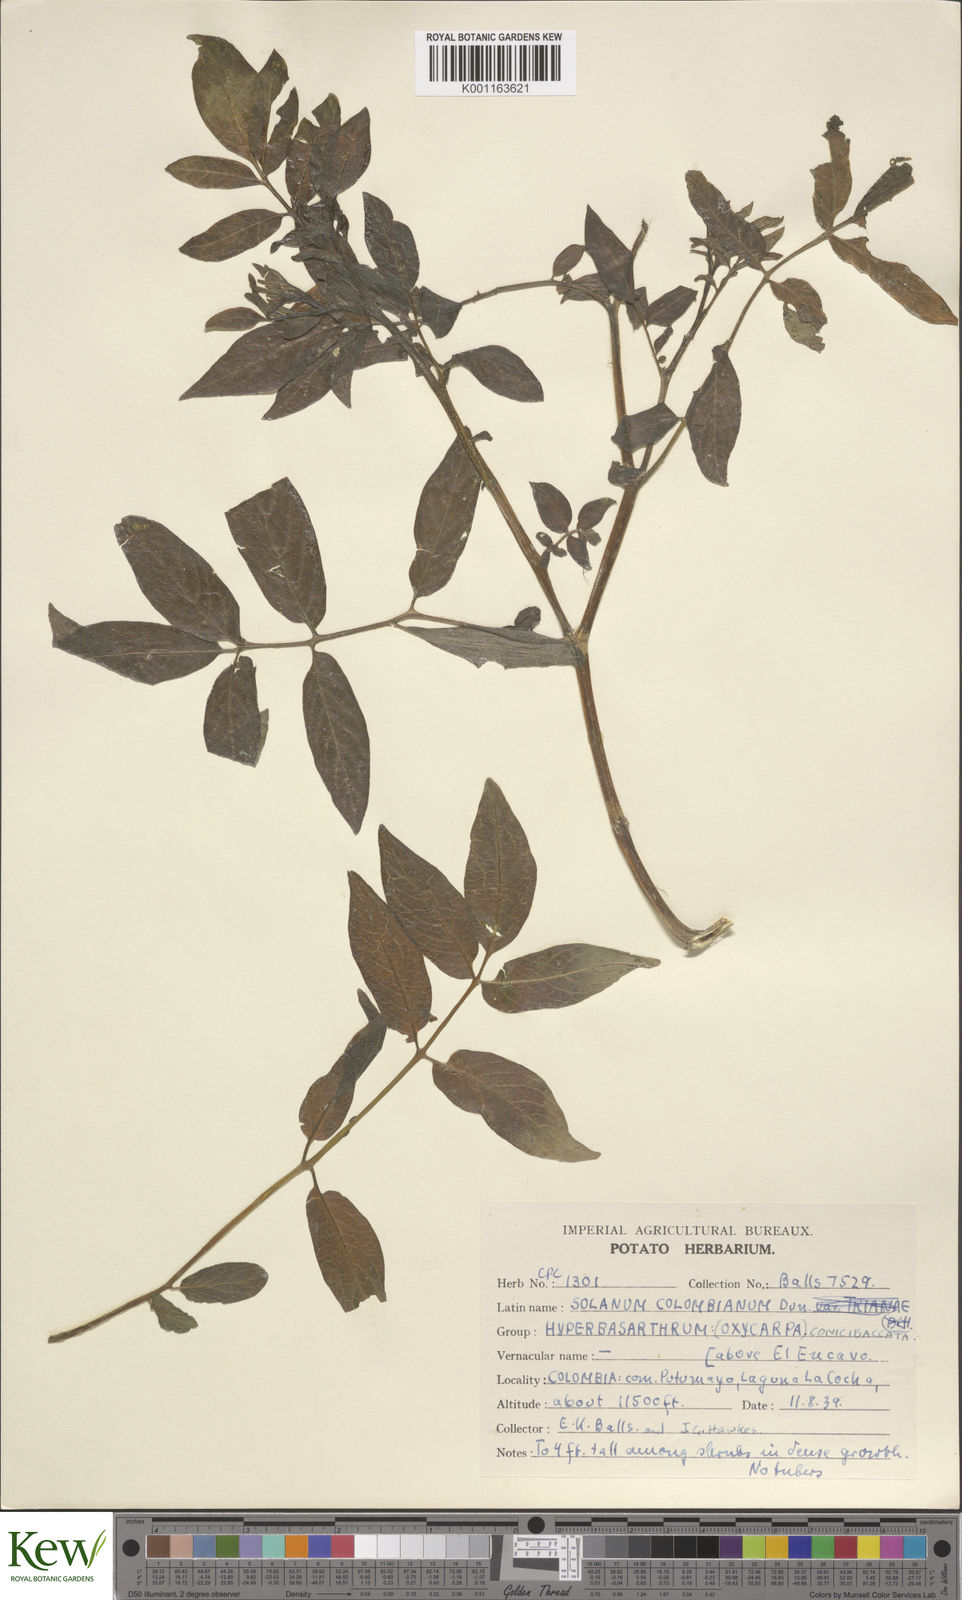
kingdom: Plantae
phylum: Tracheophyta
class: Magnoliopsida
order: Solanales
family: Solanaceae
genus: Solanum
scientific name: Solanum colombianum
